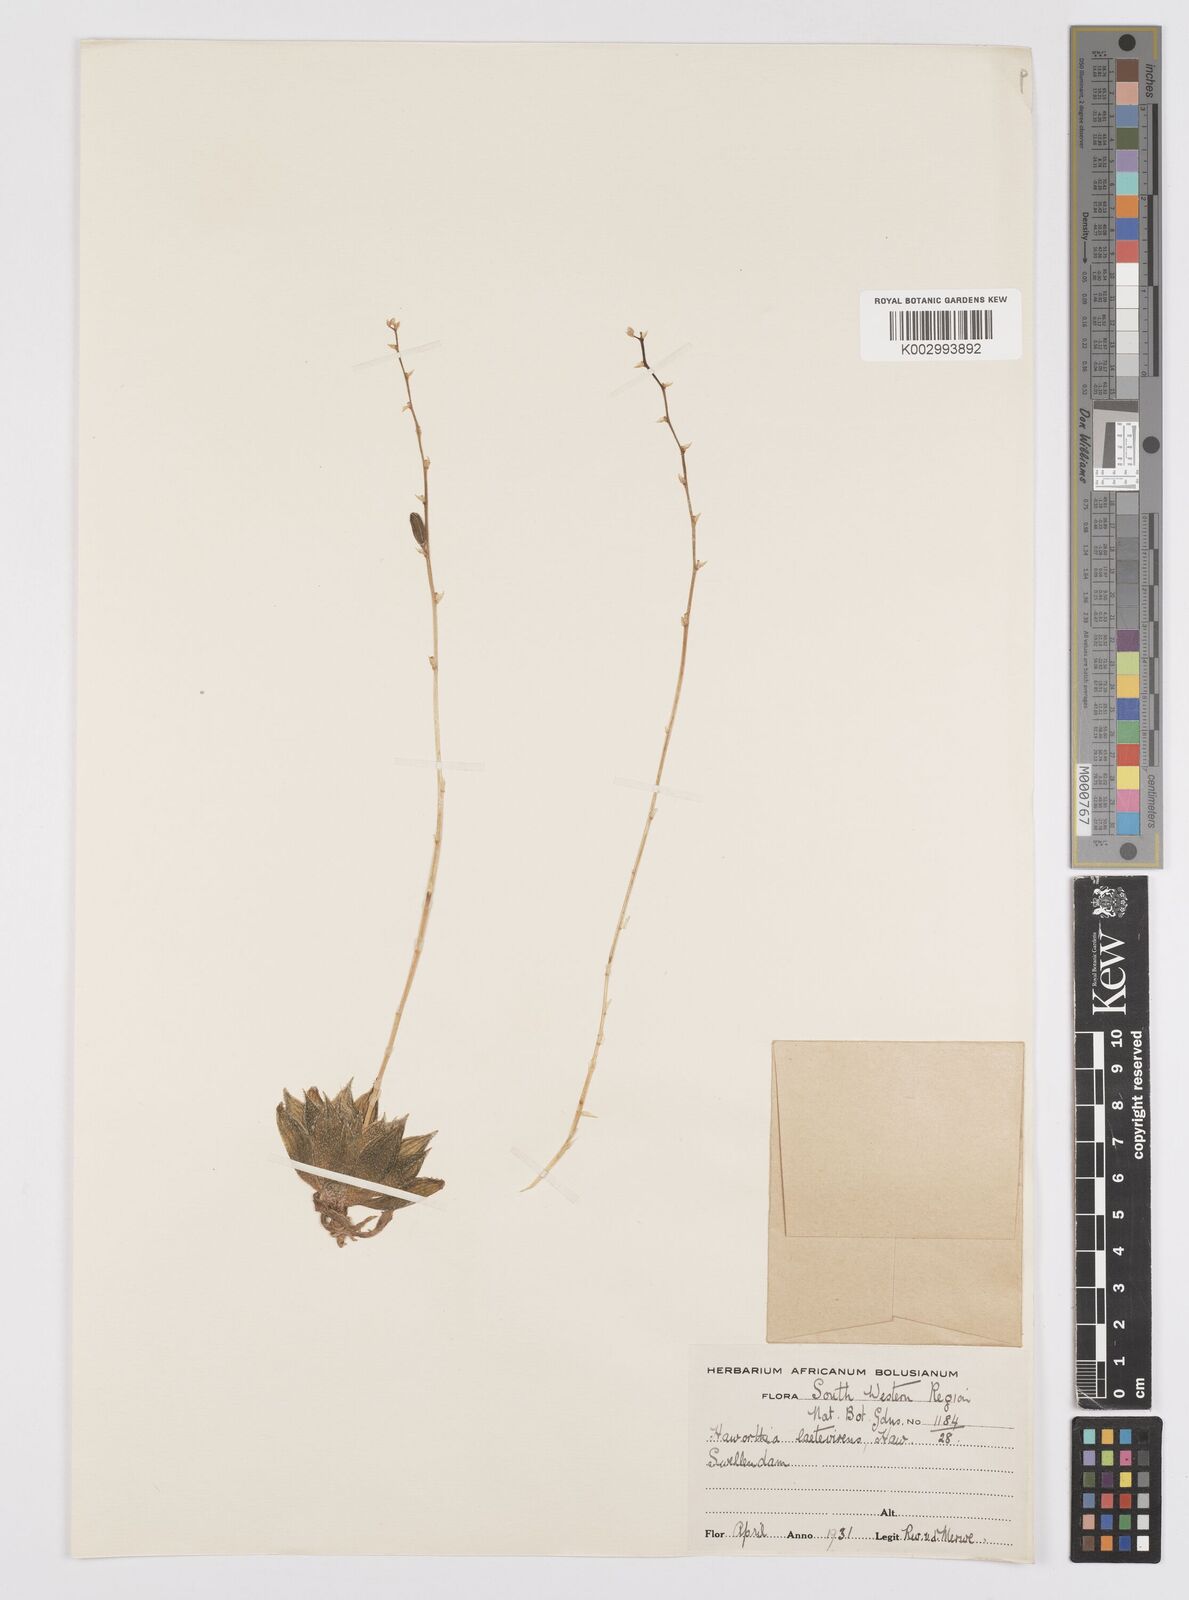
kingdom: Plantae
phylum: Tracheophyta
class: Liliopsida
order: Asparagales
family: Asphodelaceae
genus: Haworthia
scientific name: Haworthia turgida
